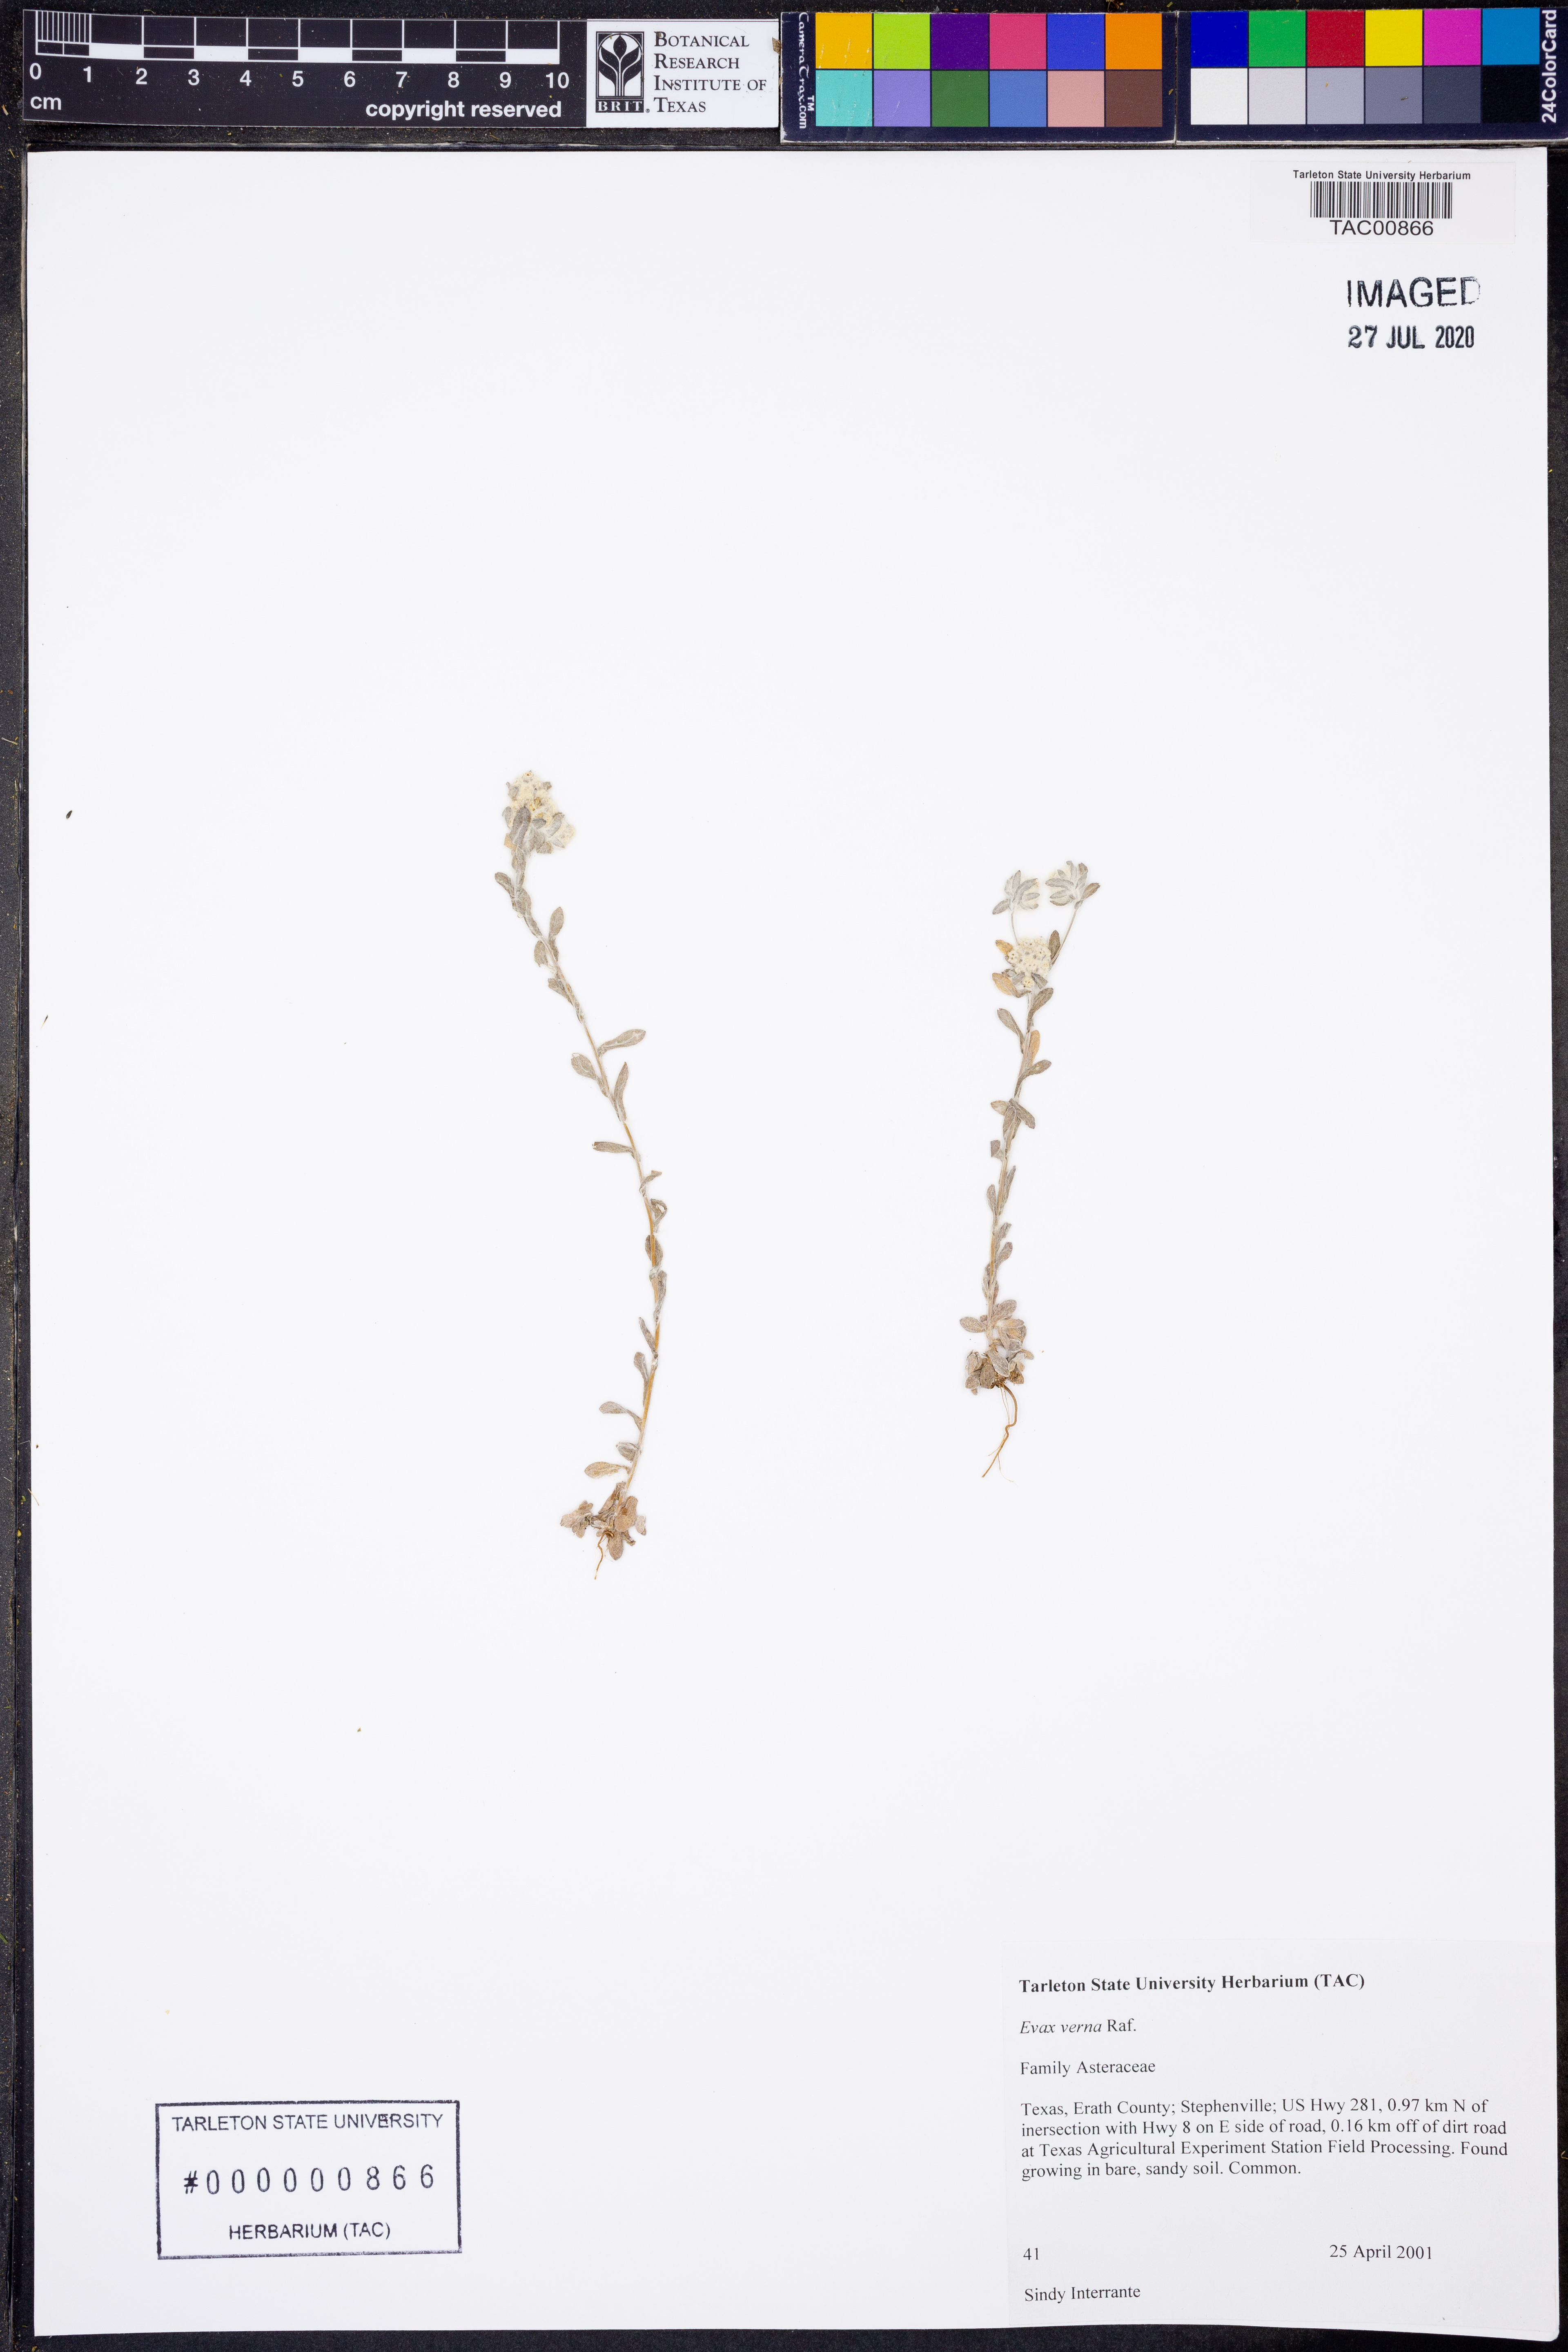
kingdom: Plantae
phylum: Tracheophyta
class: Magnoliopsida
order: Asterales
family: Asteraceae
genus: Diaperia
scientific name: Diaperia verna
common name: Many-stem rabbit-tobacco
